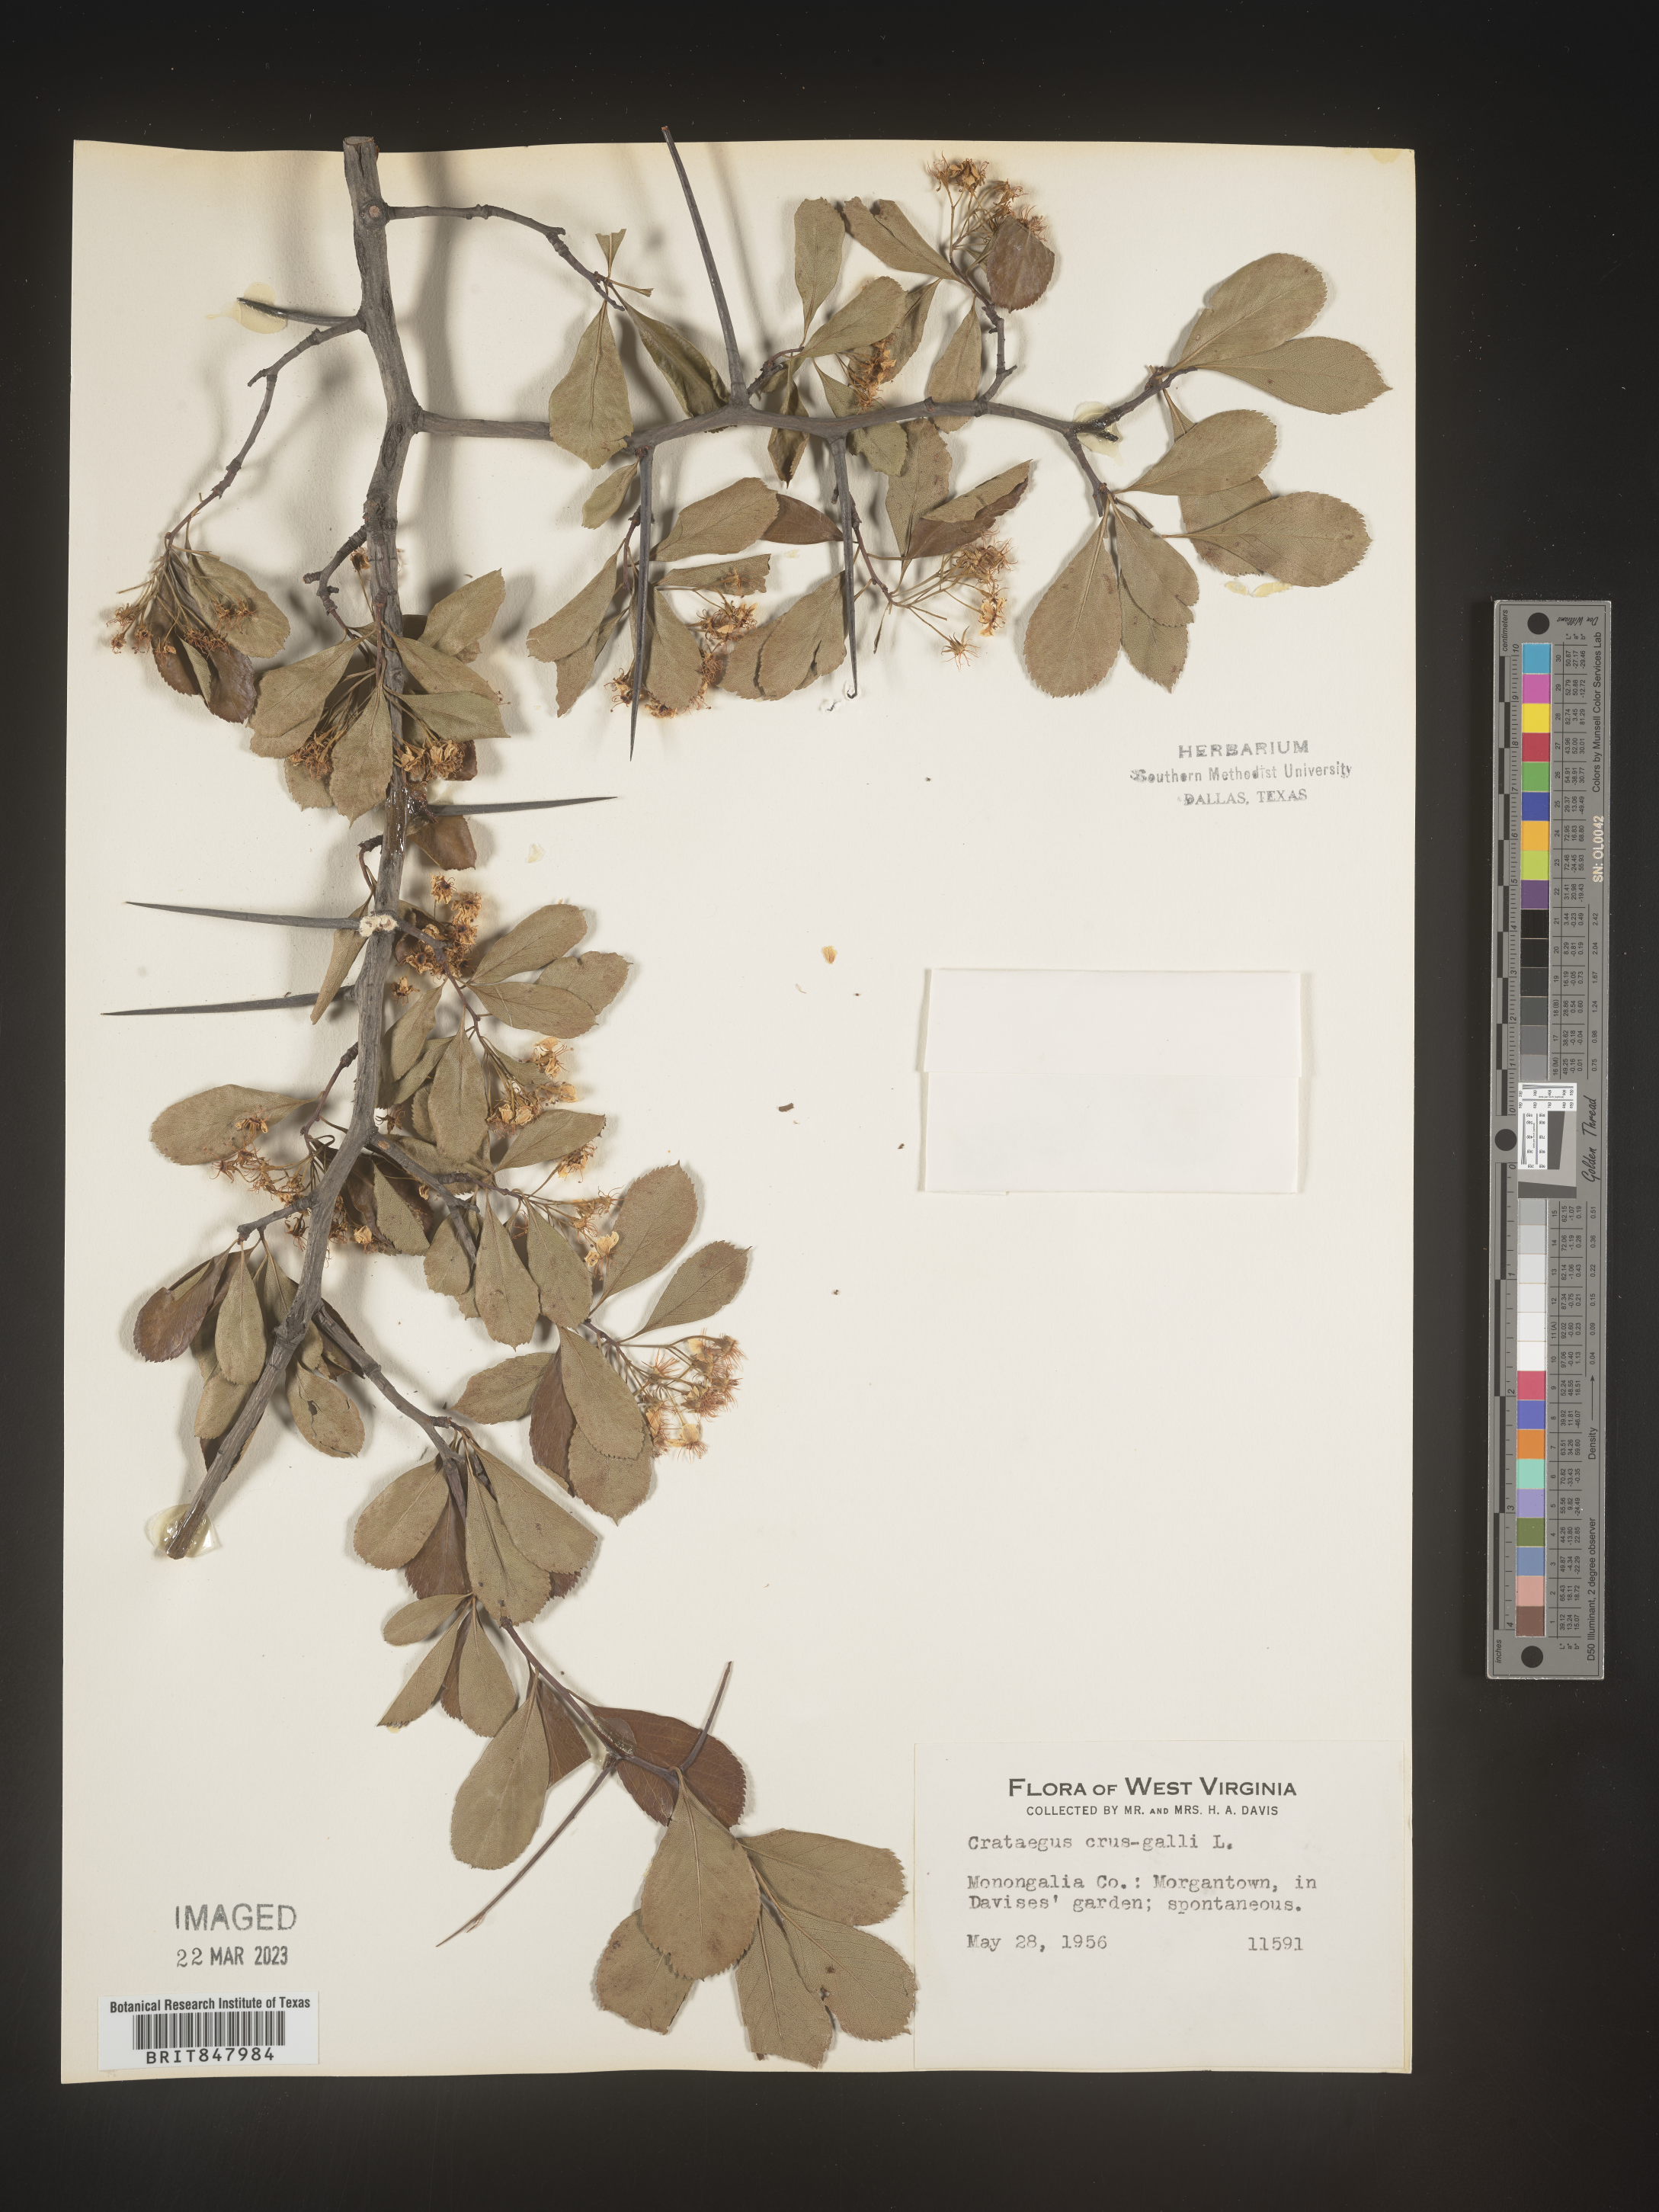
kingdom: Plantae
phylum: Tracheophyta
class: Magnoliopsida
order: Rosales
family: Rosaceae
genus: Crataegus
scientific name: Crataegus crus-galli
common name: Cockspurthorn
